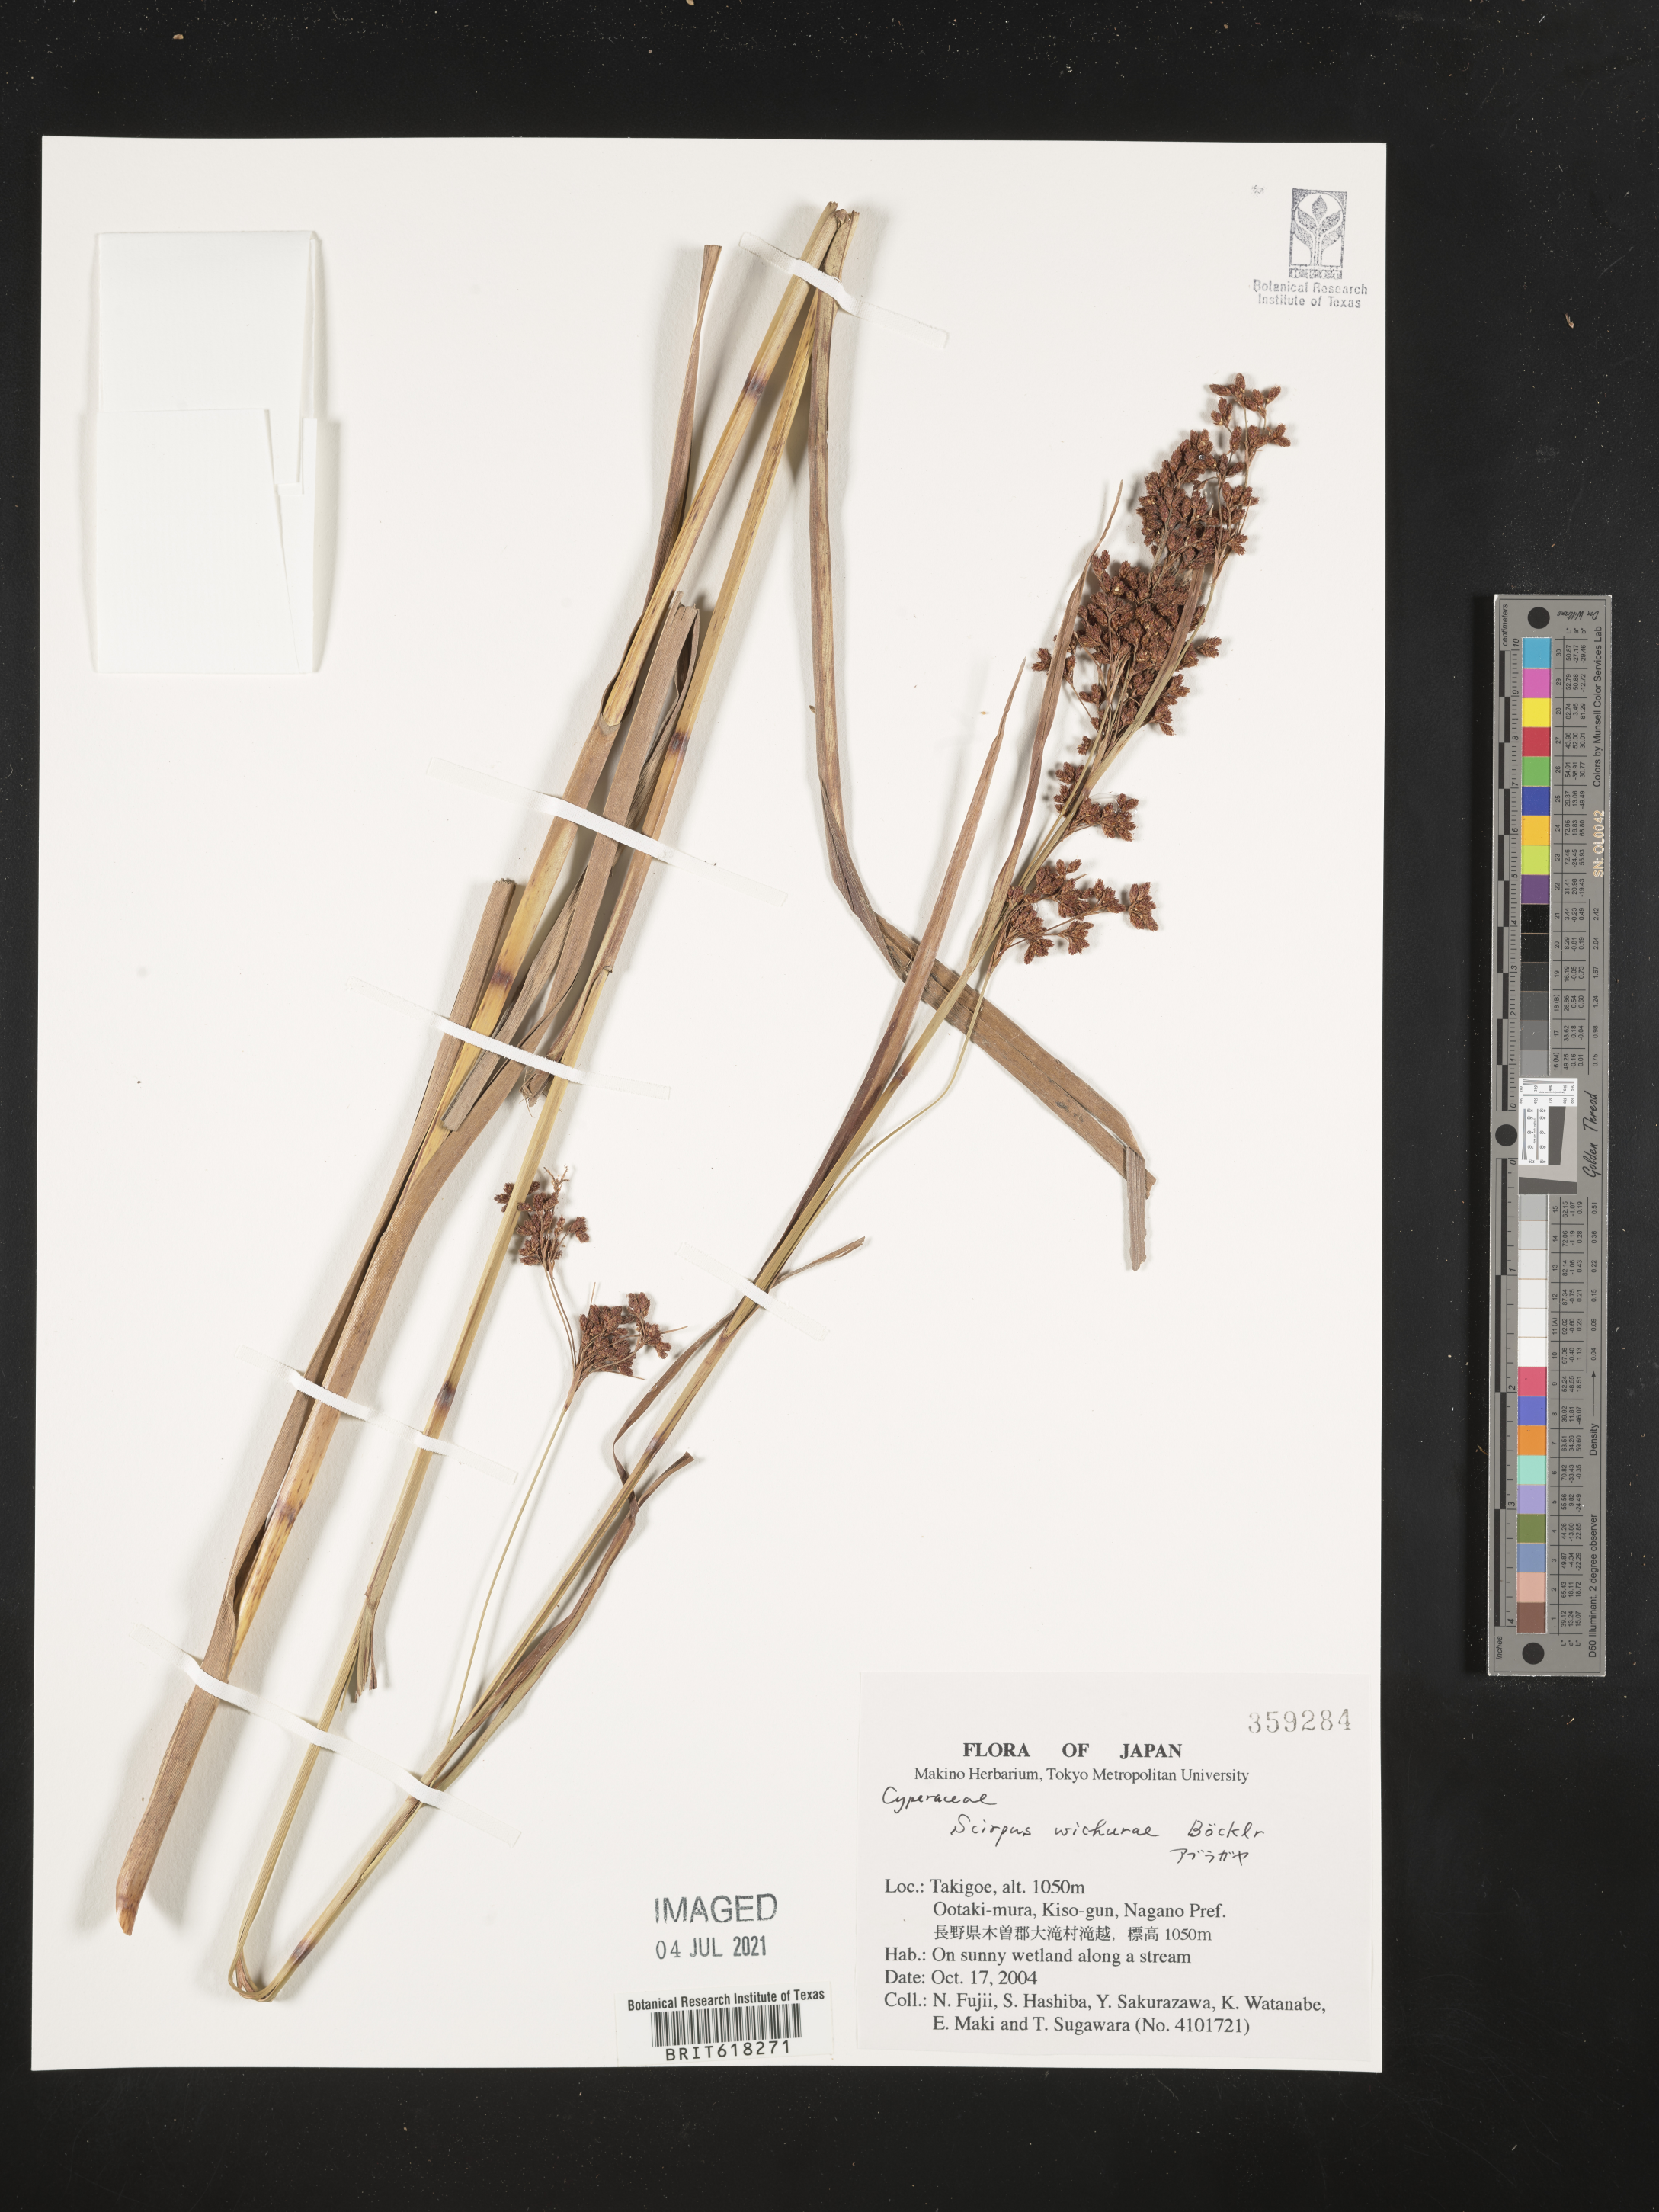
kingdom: Plantae
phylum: Tracheophyta
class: Liliopsida
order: Poales
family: Cyperaceae
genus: Scirpus
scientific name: Scirpus wichurae
